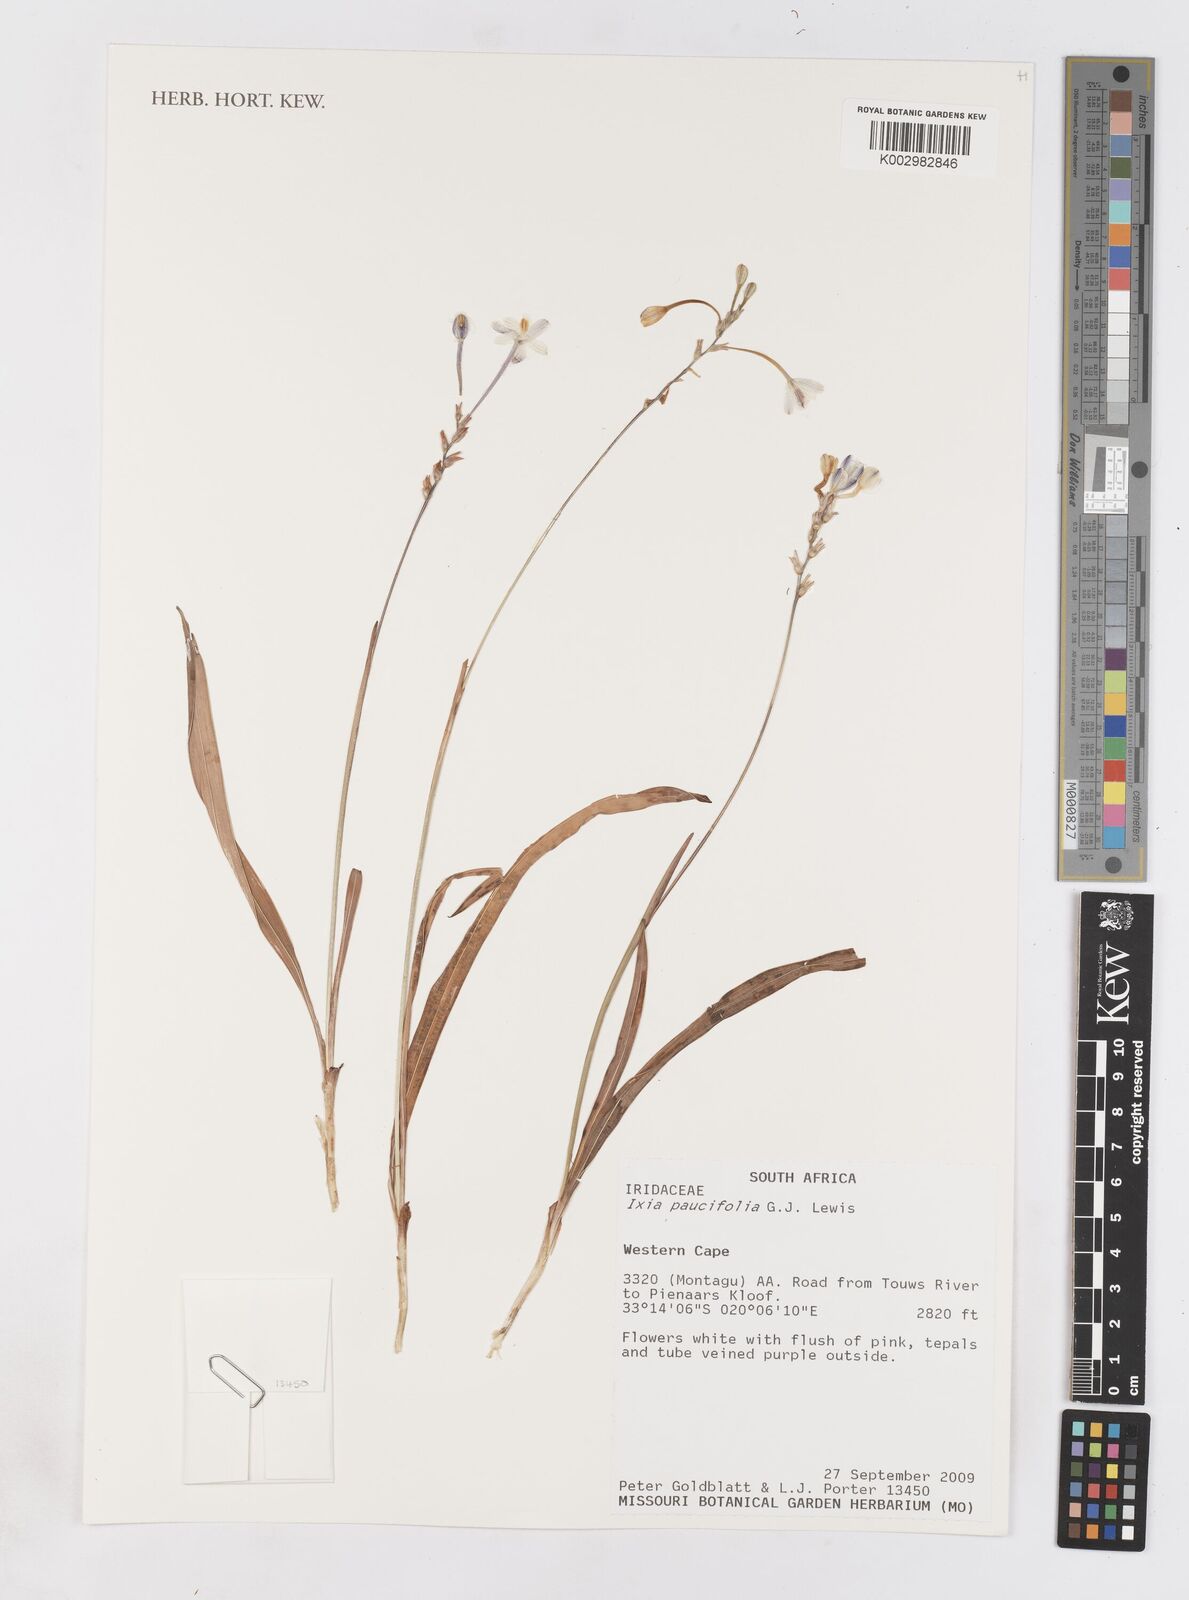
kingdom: Plantae
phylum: Tracheophyta
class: Liliopsida
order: Asparagales
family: Iridaceae
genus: Ixia
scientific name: Ixia paucifolia
